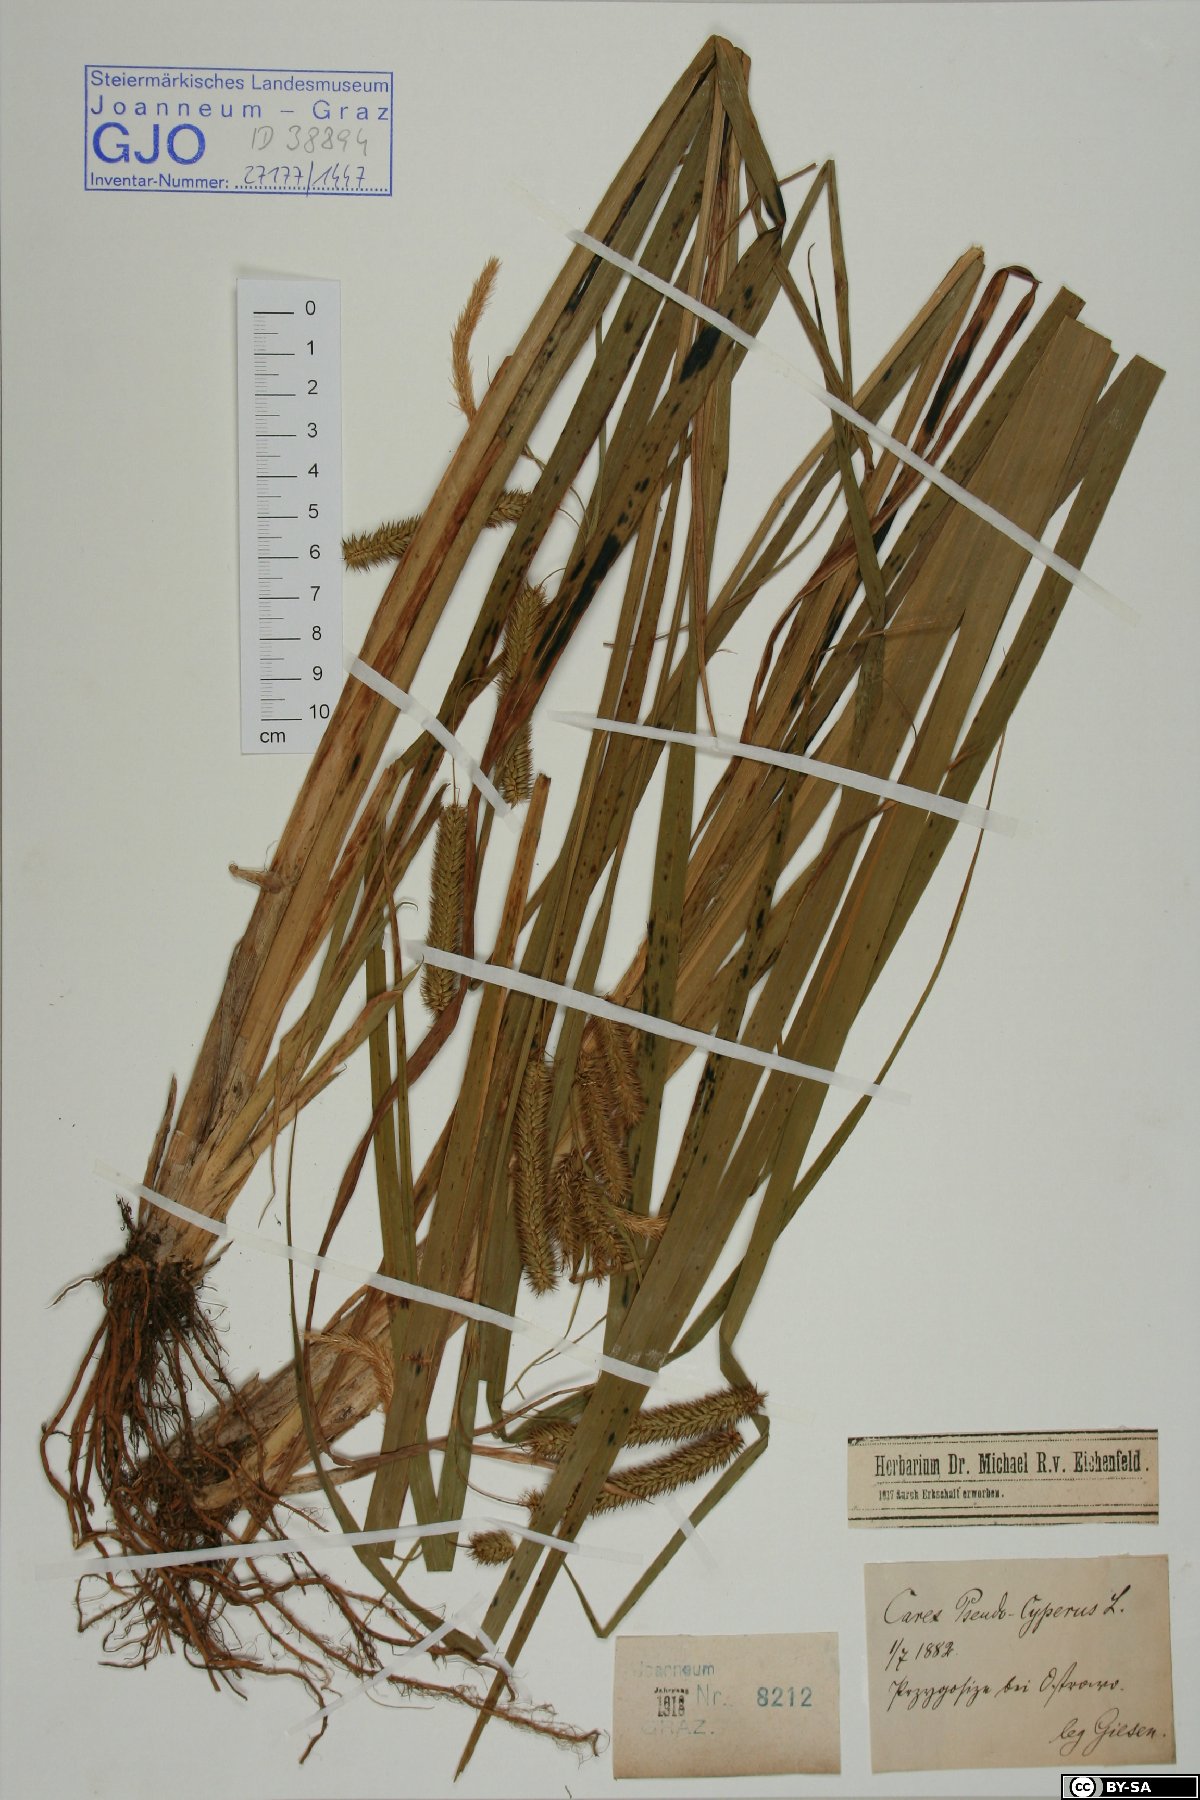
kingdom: Plantae
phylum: Tracheophyta
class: Liliopsida
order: Poales
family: Cyperaceae
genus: Carex
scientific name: Carex pseudocyperus
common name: Cyperus sedge
